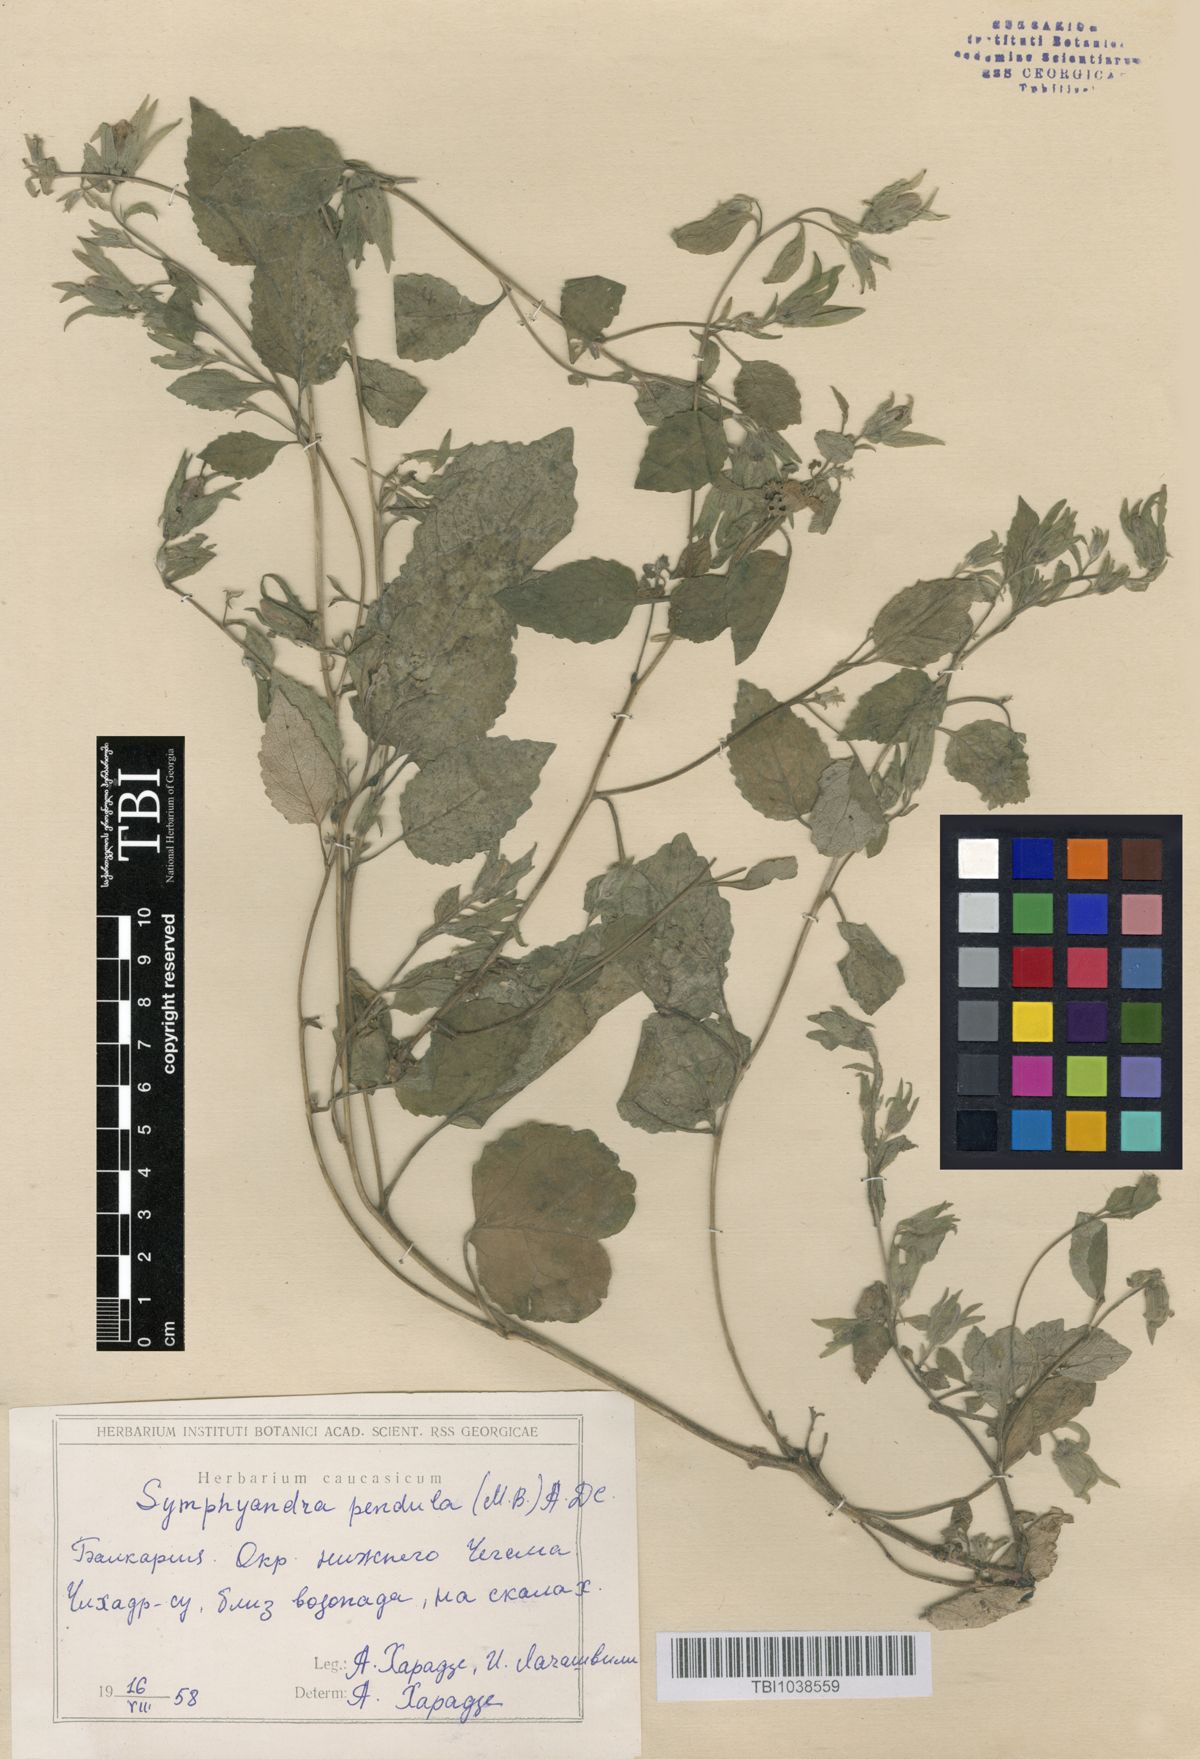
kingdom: Plantae
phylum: Tracheophyta
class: Magnoliopsida
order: Asterales
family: Campanulaceae
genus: Campanula
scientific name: Campanula pendula
